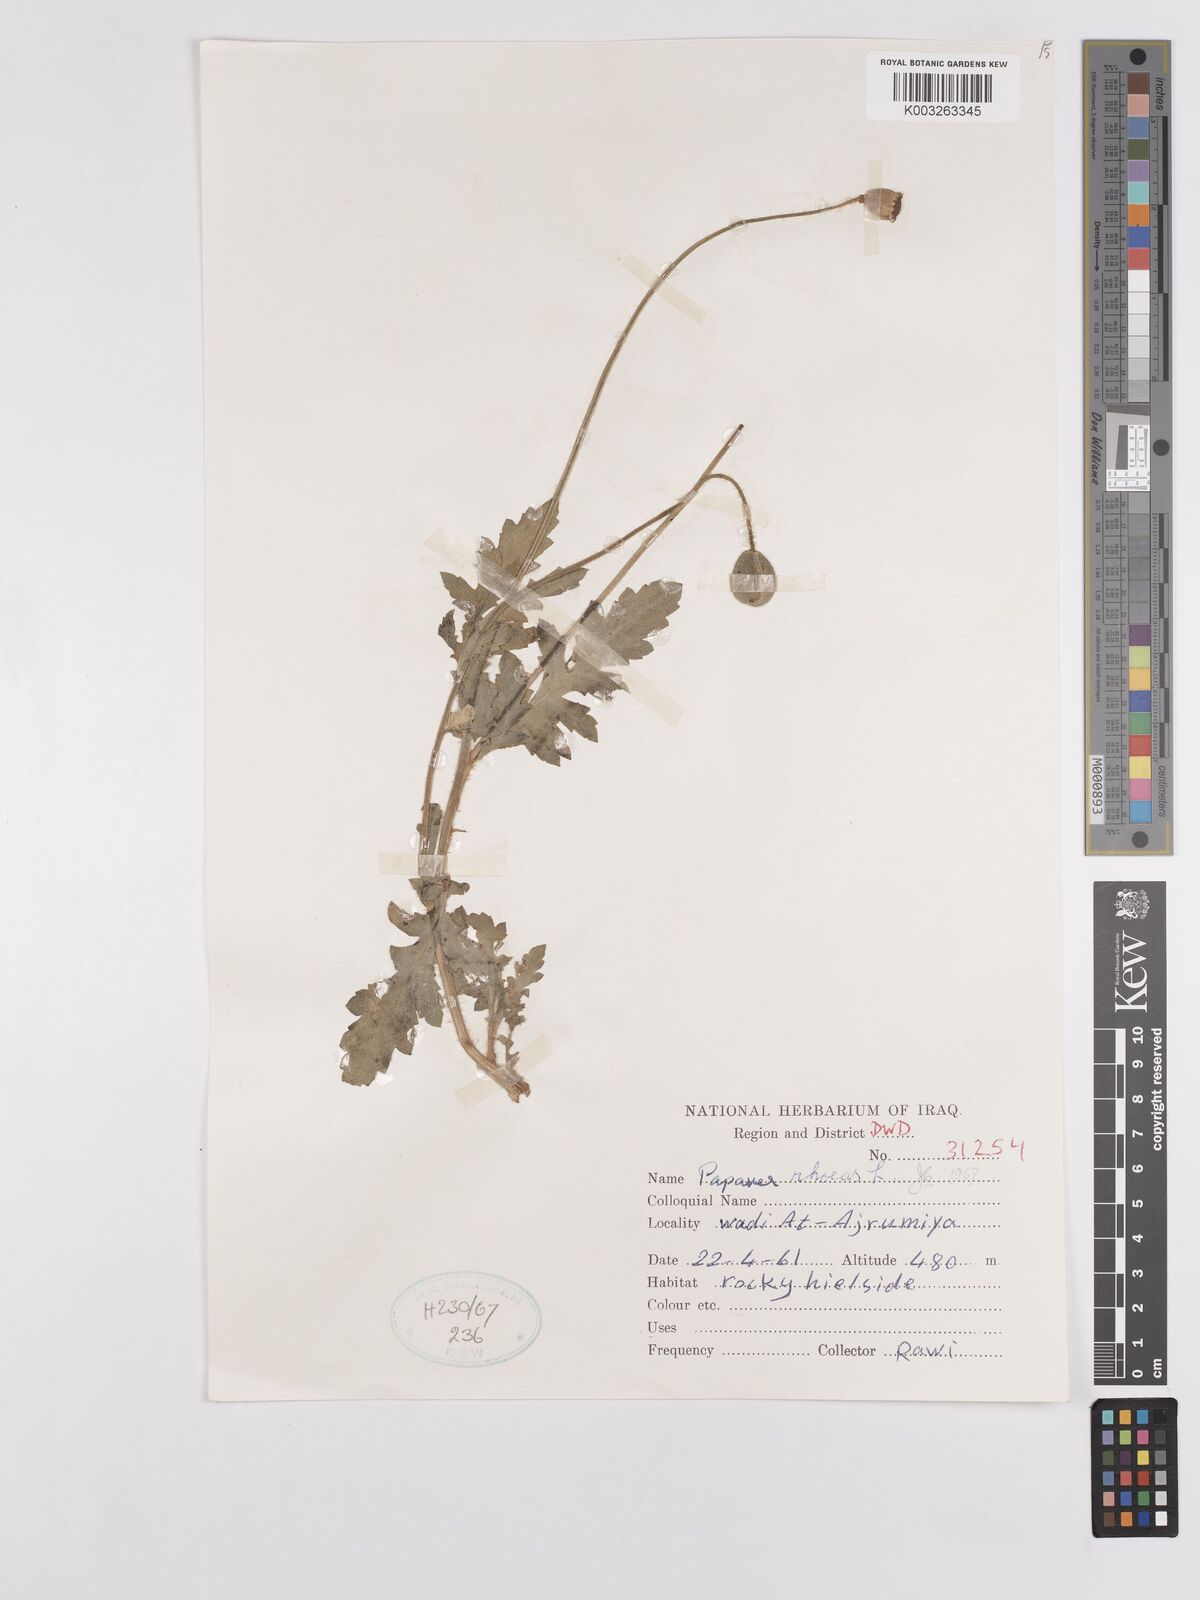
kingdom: Plantae
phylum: Tracheophyta
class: Magnoliopsida
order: Ranunculales
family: Papaveraceae
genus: Papaver
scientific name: Papaver rhoeas
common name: Corn poppy
